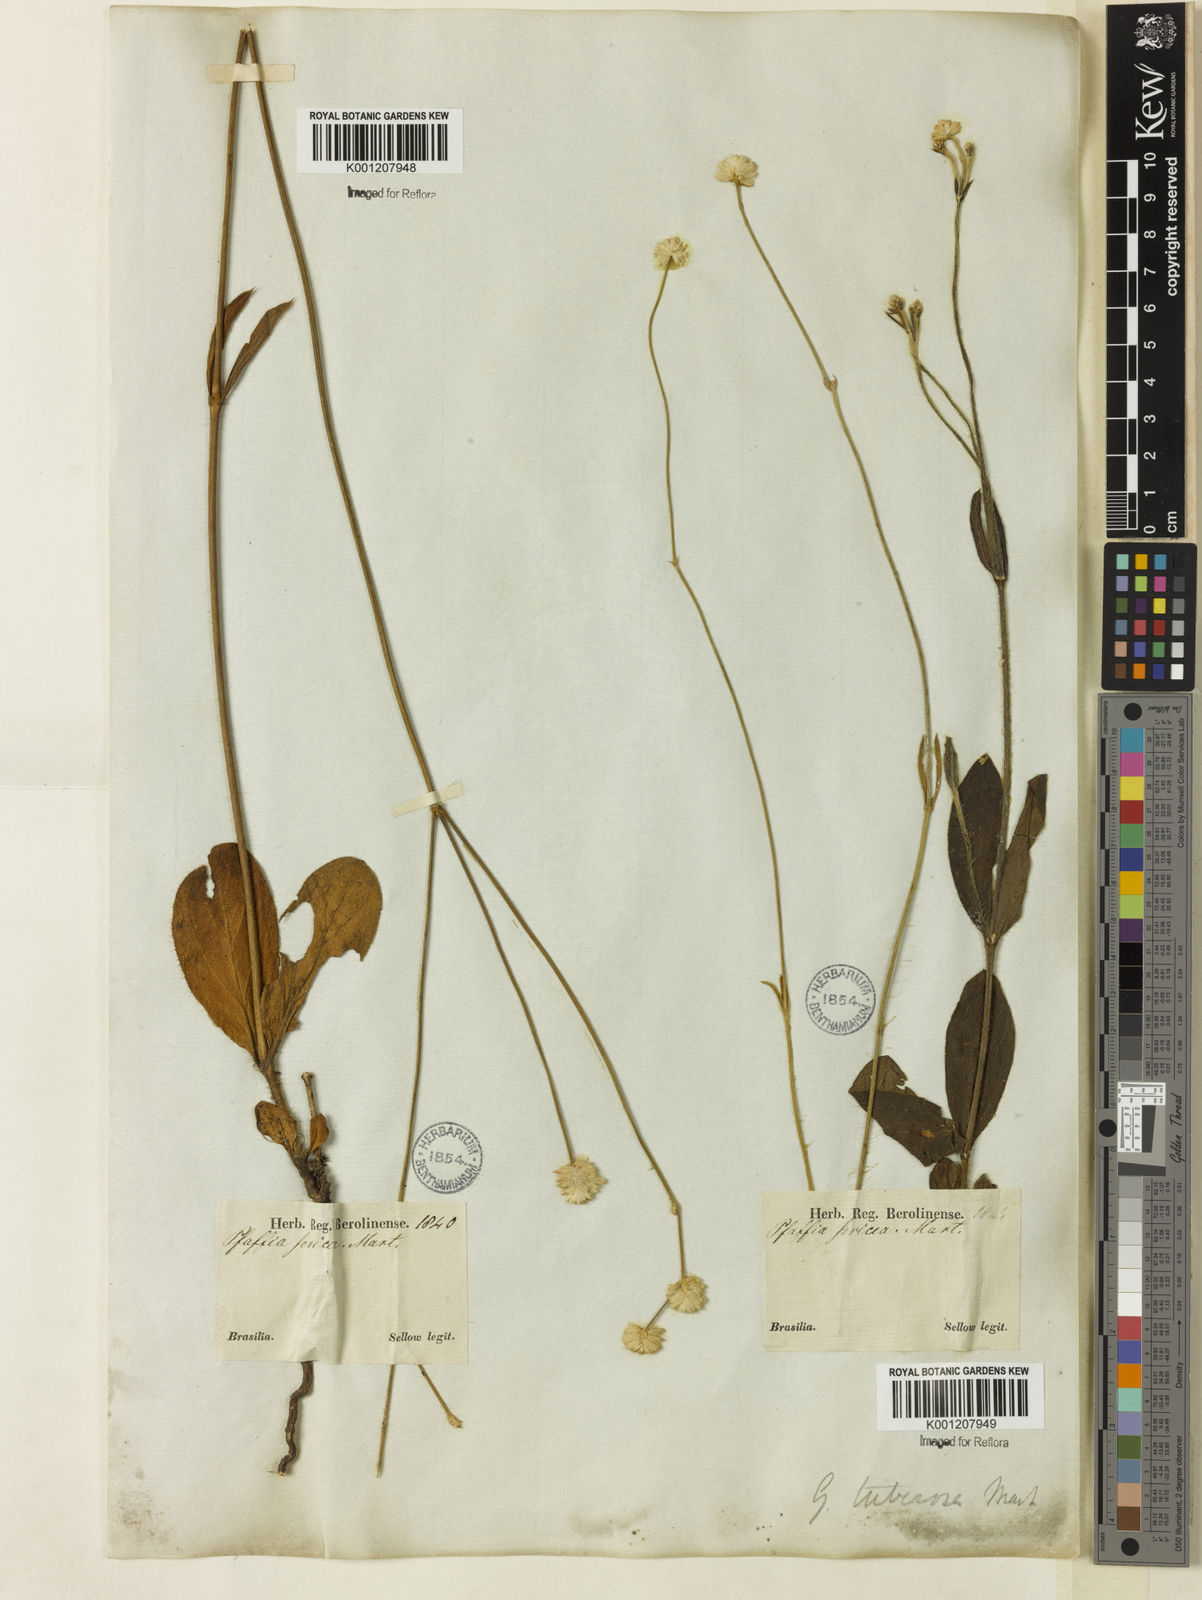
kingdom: Plantae
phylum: Tracheophyta
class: Magnoliopsida
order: Caryophyllales
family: Amaranthaceae
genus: Pfaffia
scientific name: Pfaffia tuberosa
